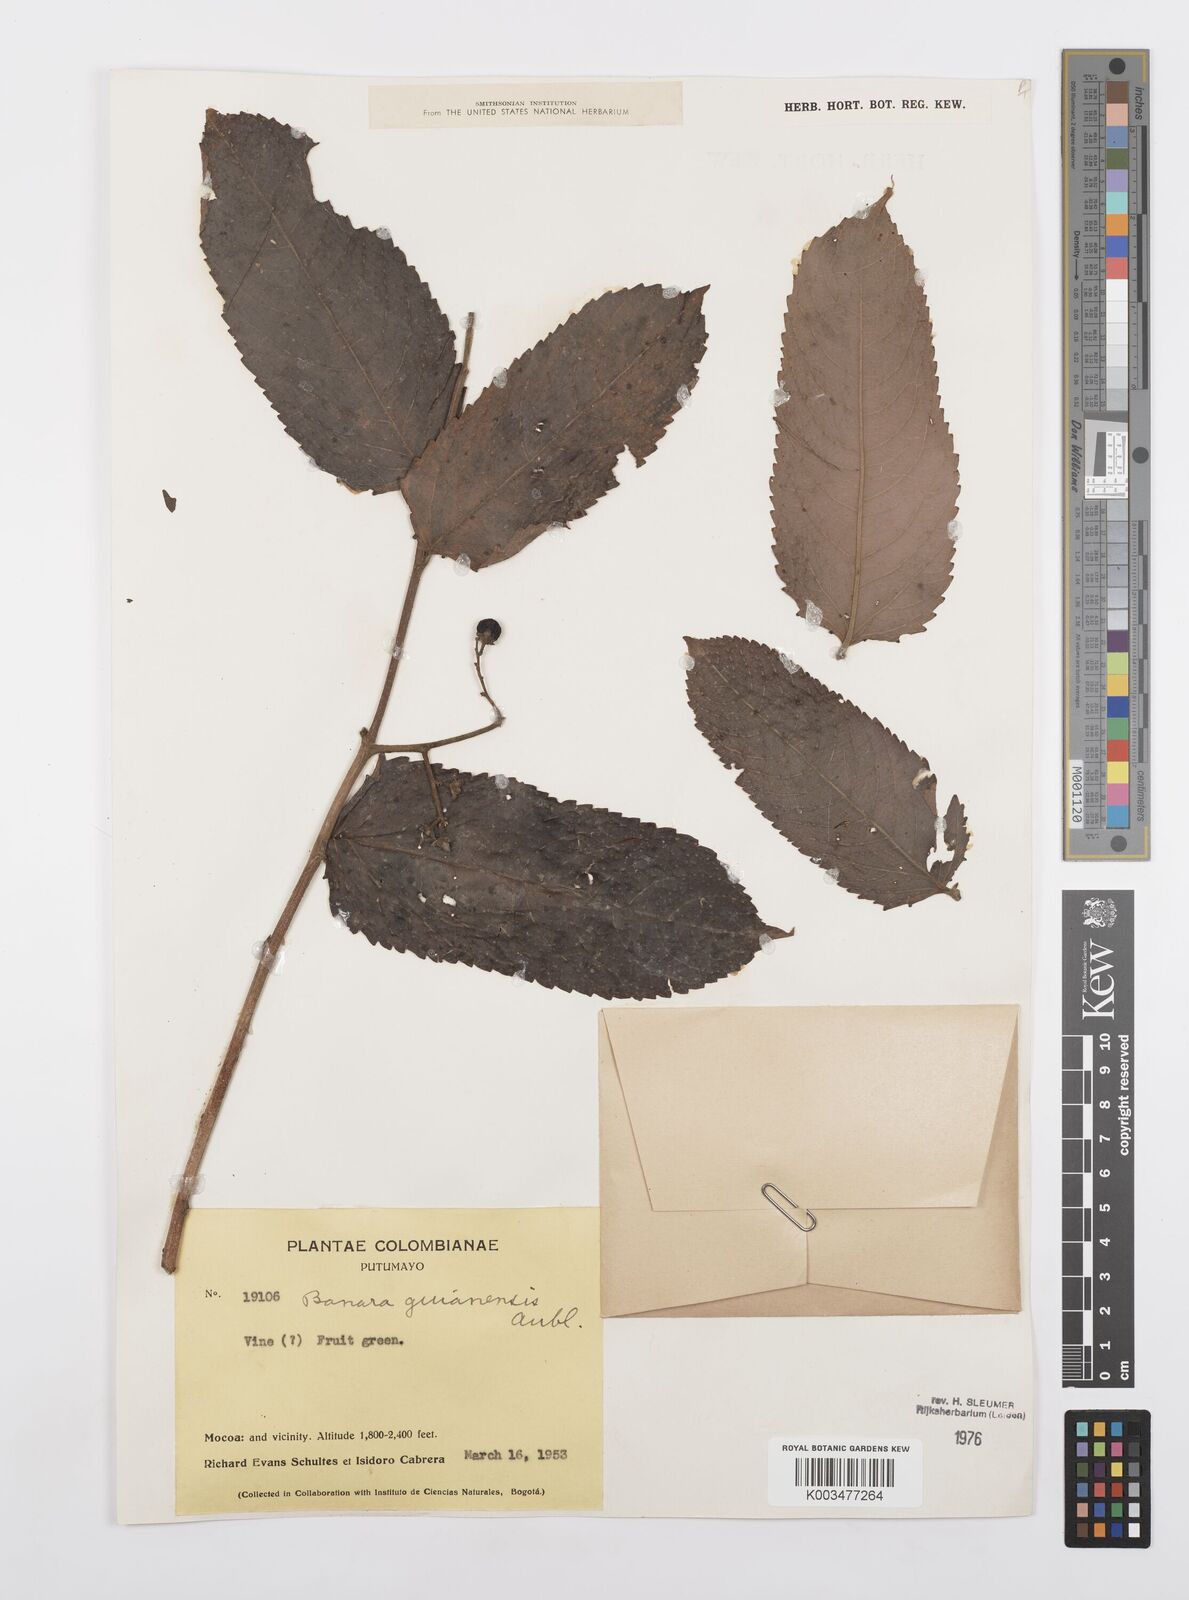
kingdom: Plantae
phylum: Tracheophyta
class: Magnoliopsida
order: Malpighiales
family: Salicaceae
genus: Banara
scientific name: Banara guianensis
